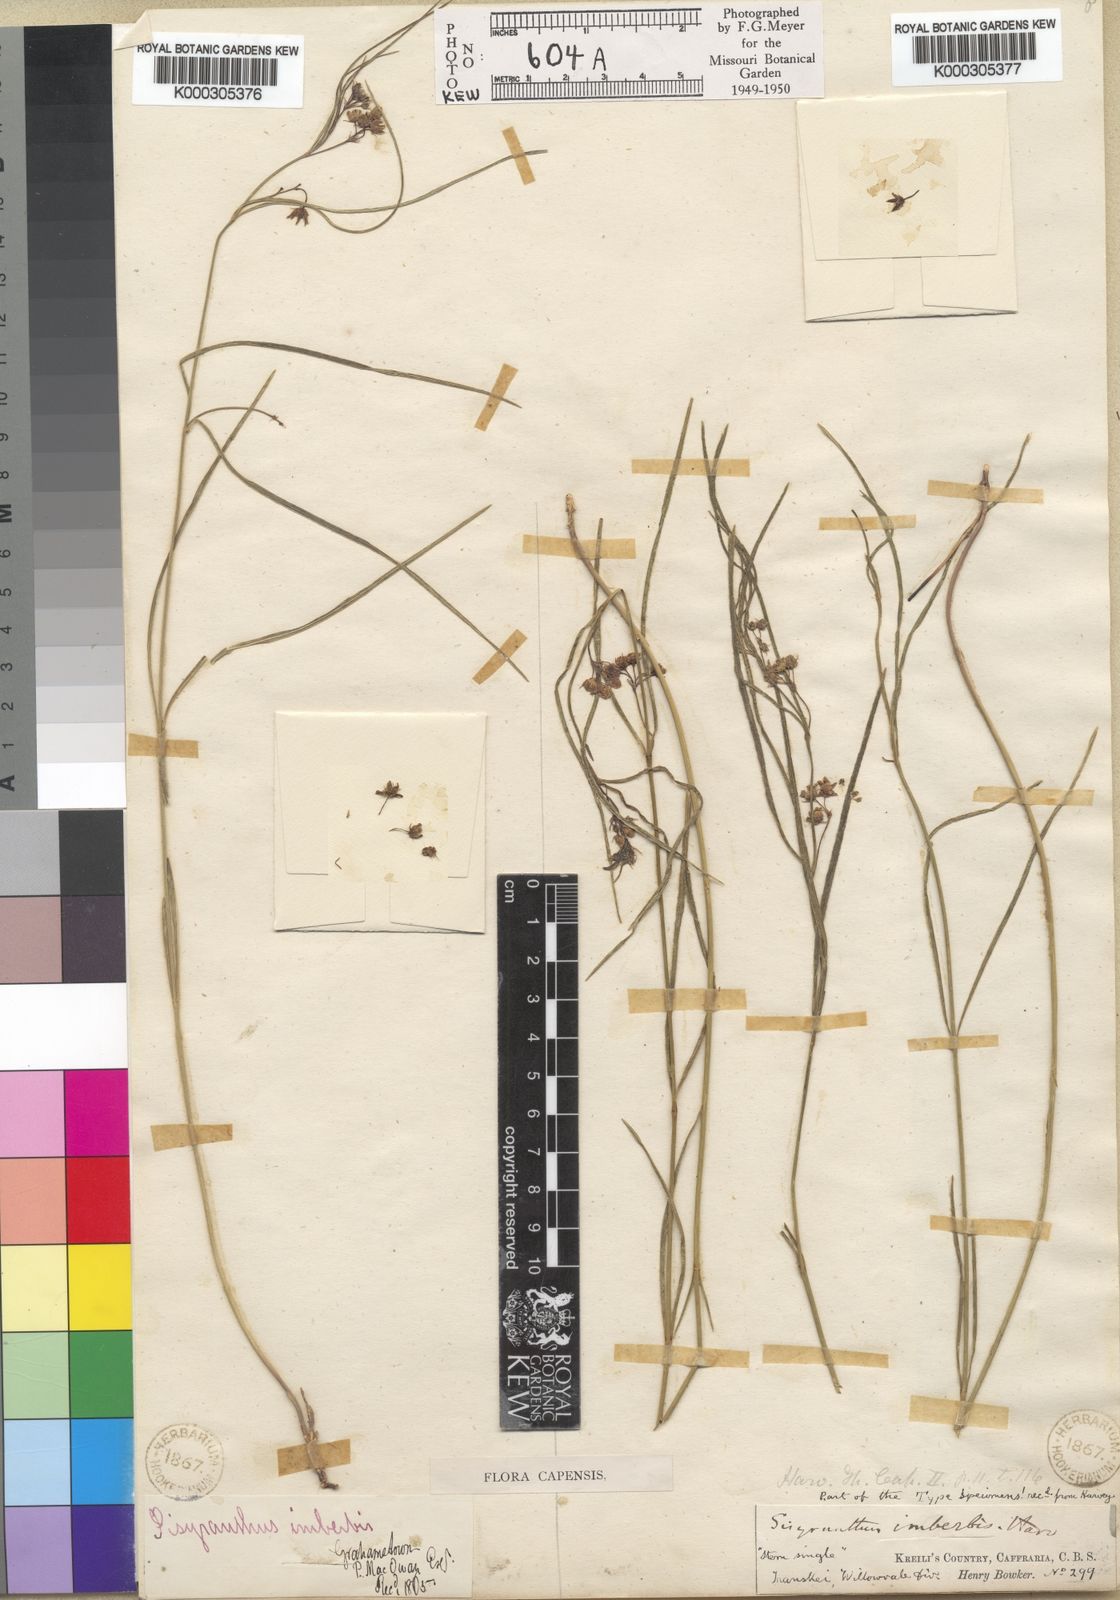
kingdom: Plantae
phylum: Tracheophyta
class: Magnoliopsida
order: Gentianales
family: Apocynaceae
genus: Sisyranthus
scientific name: Sisyranthus imberbis
